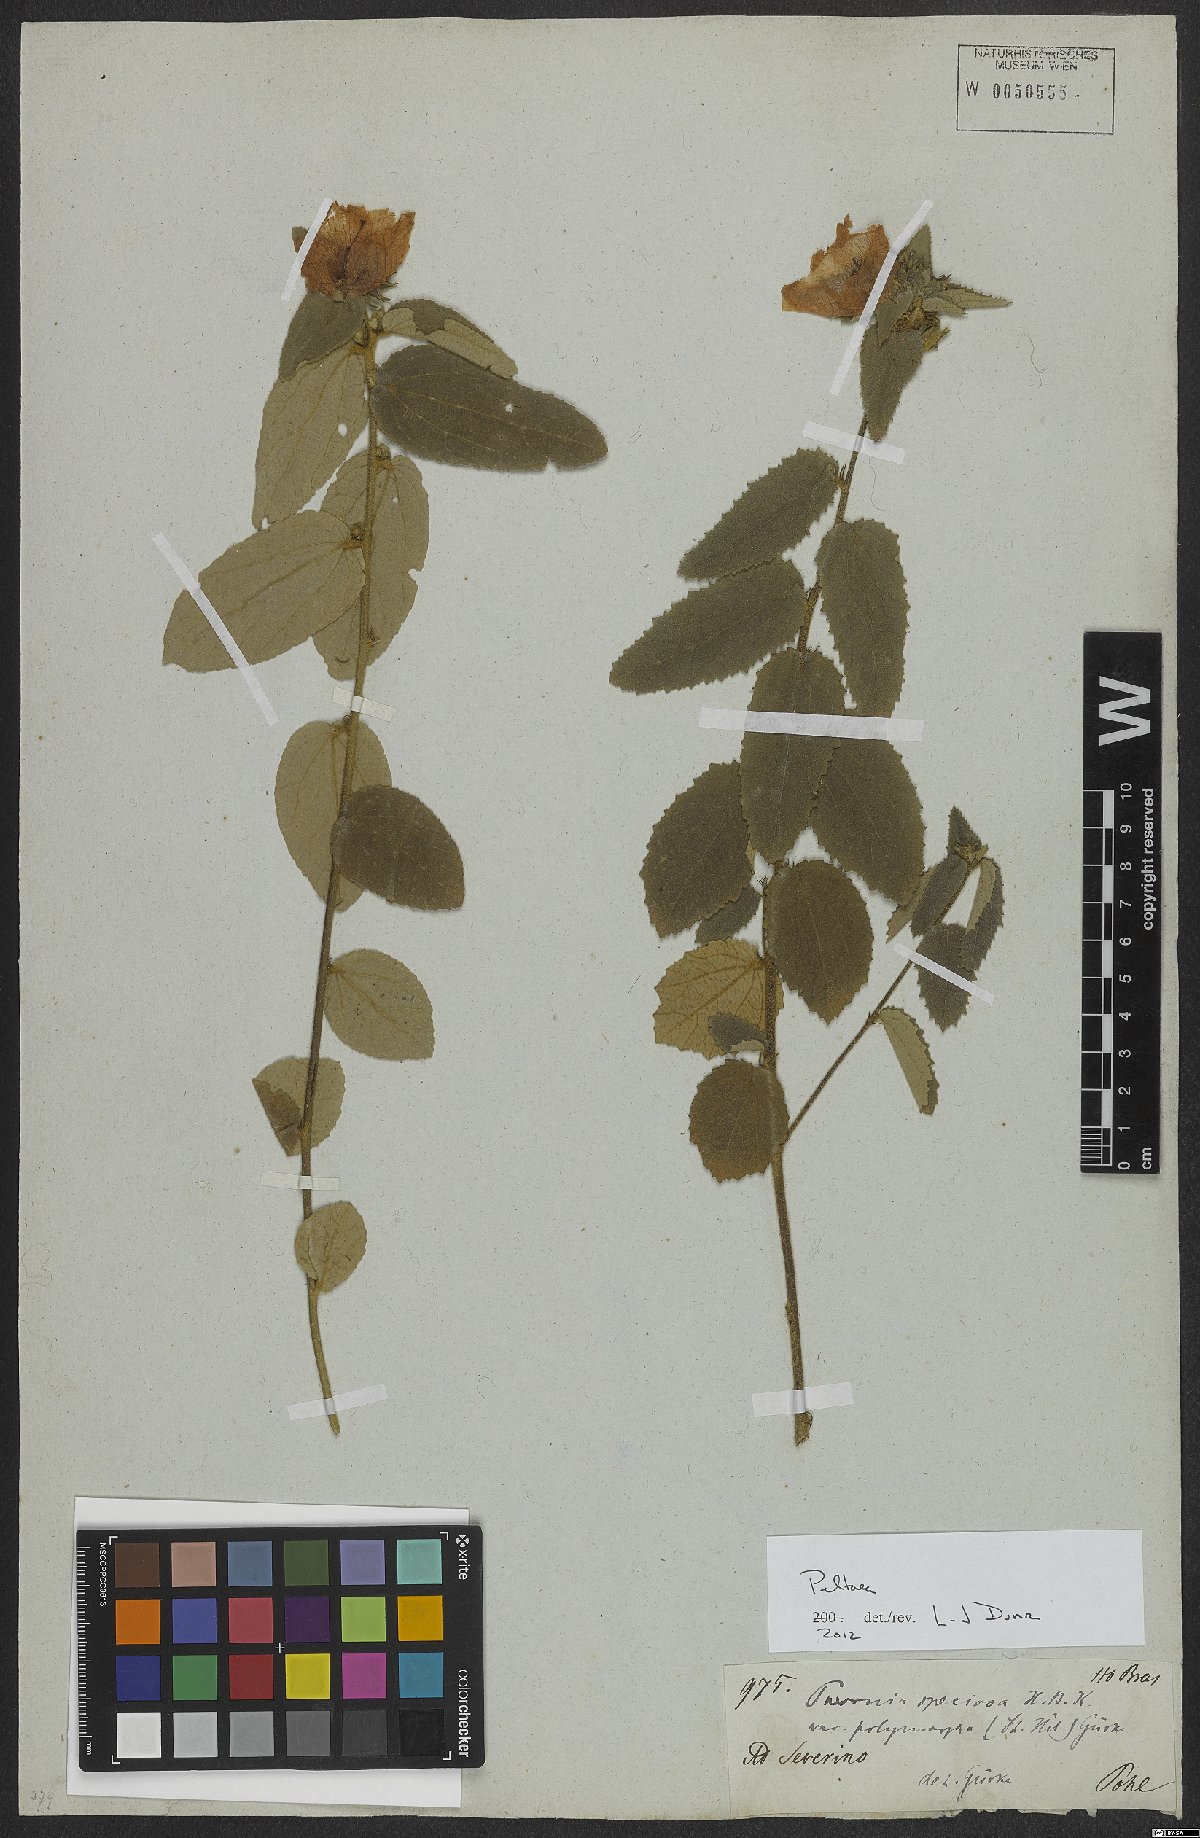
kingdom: Plantae
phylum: Tracheophyta
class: Magnoliopsida
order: Malvales
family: Malvaceae
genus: Peltaea
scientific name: Peltaea
